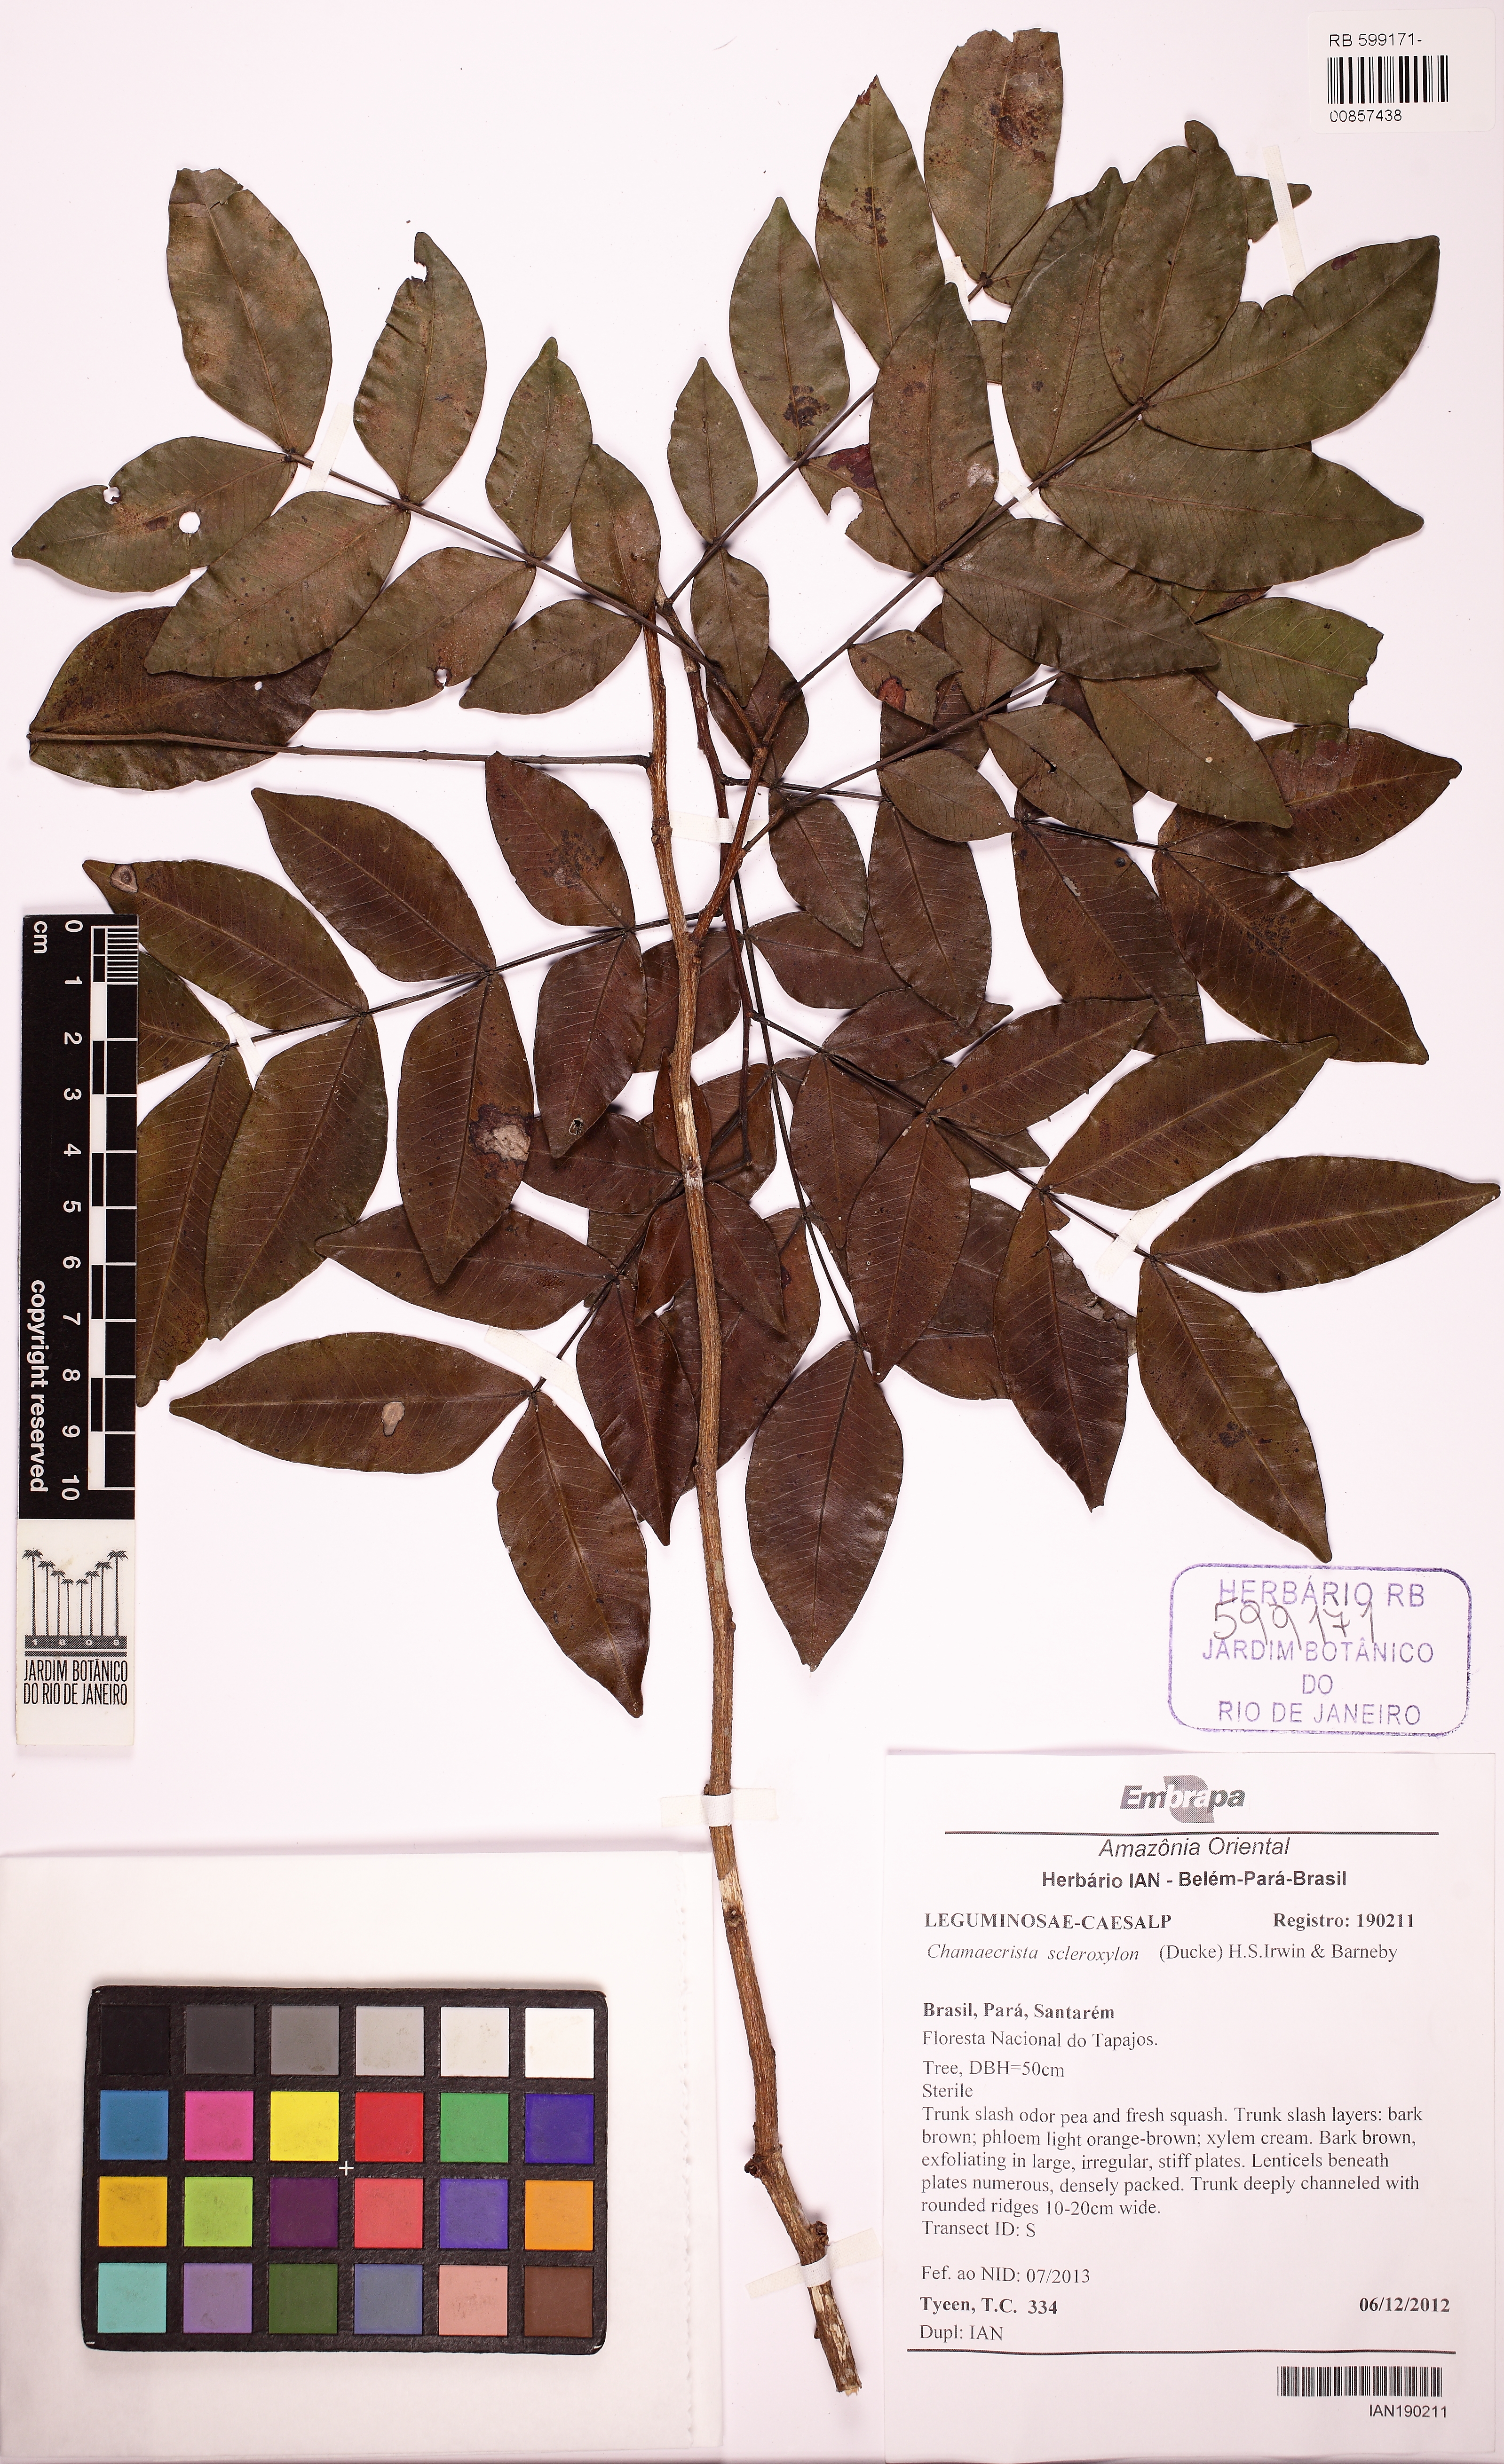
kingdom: Plantae
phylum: Tracheophyta
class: Magnoliopsida
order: Fabales
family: Fabaceae
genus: Chamaecrista
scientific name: Chamaecrista scleroxylon
